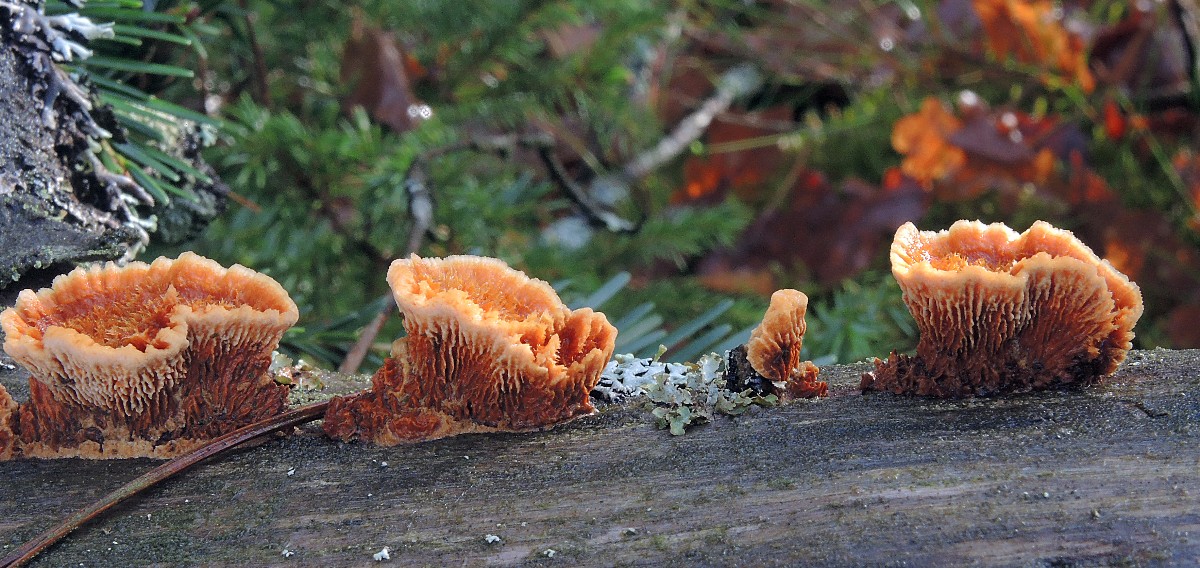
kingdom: Fungi
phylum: Basidiomycota
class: Agaricomycetes
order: Gloeophyllales
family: Gloeophyllaceae
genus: Gloeophyllum
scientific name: Gloeophyllum sepiarium
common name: fyrre-korkhat
